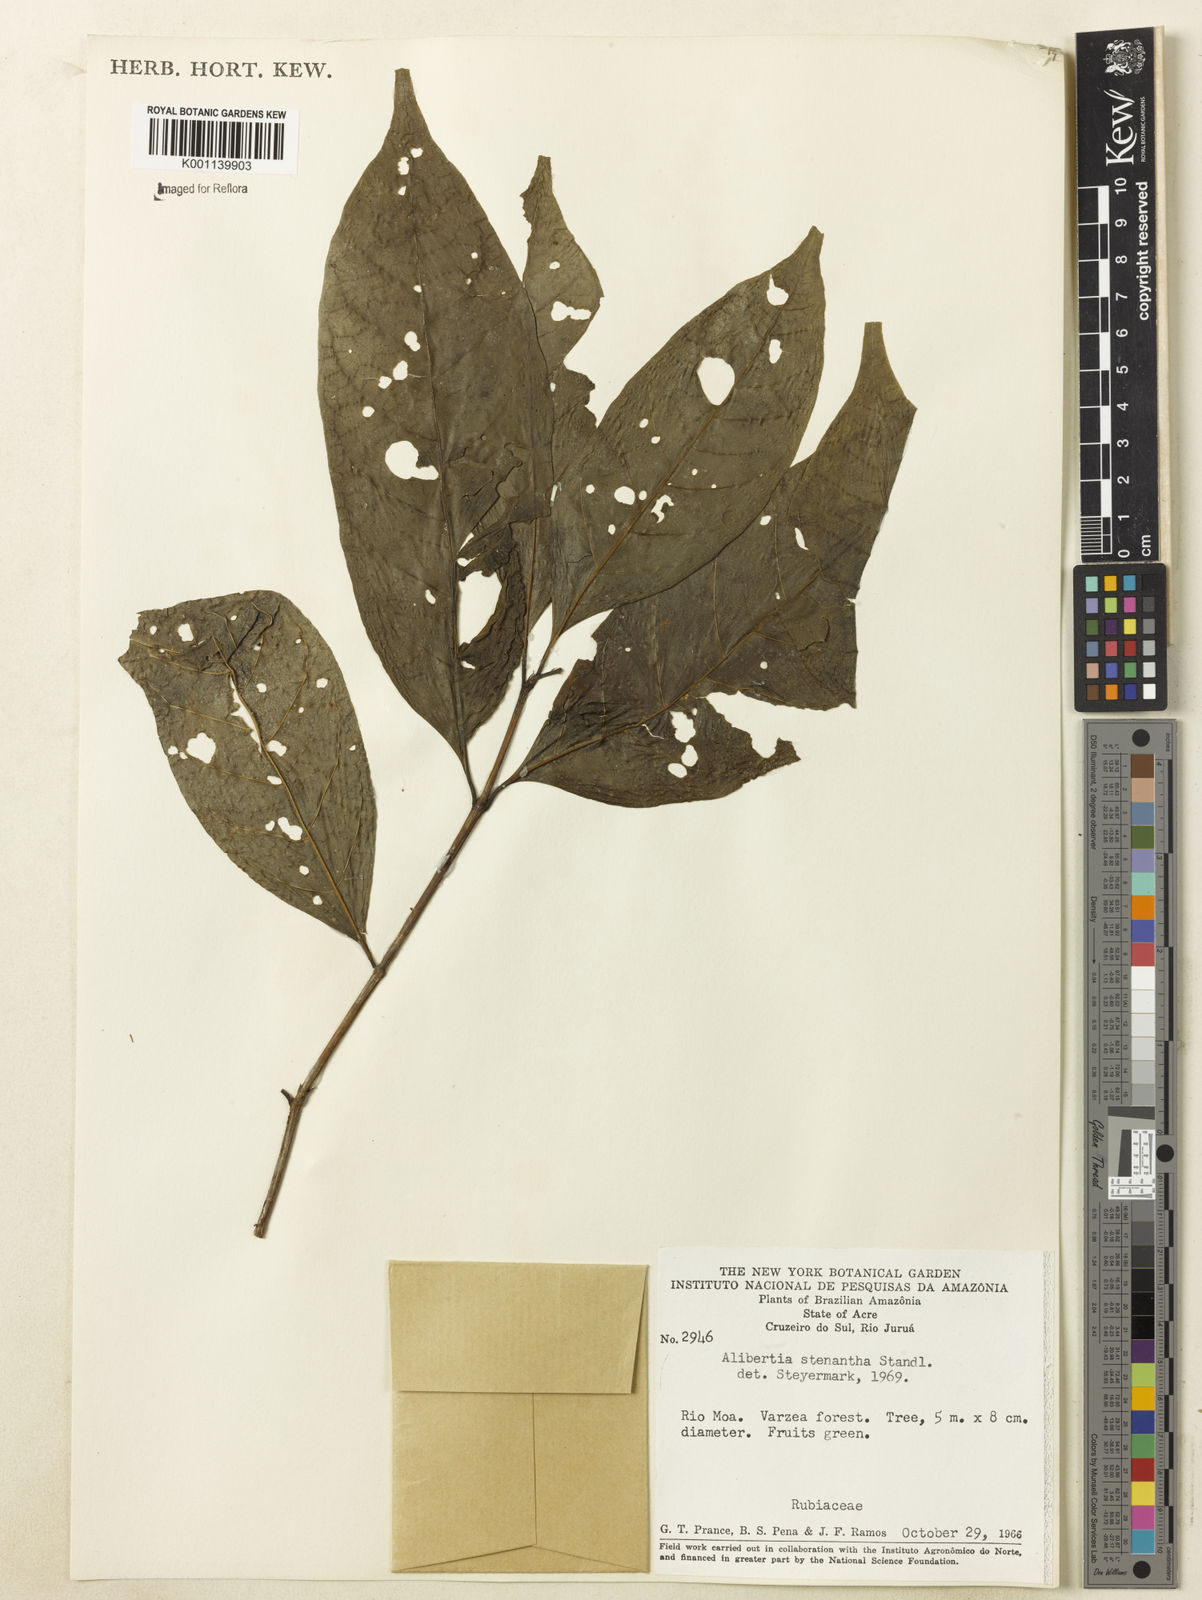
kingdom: Plantae
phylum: Tracheophyta
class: Magnoliopsida
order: Gentianales
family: Rubiaceae
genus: Alibertia
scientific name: Alibertia bertierifolia
